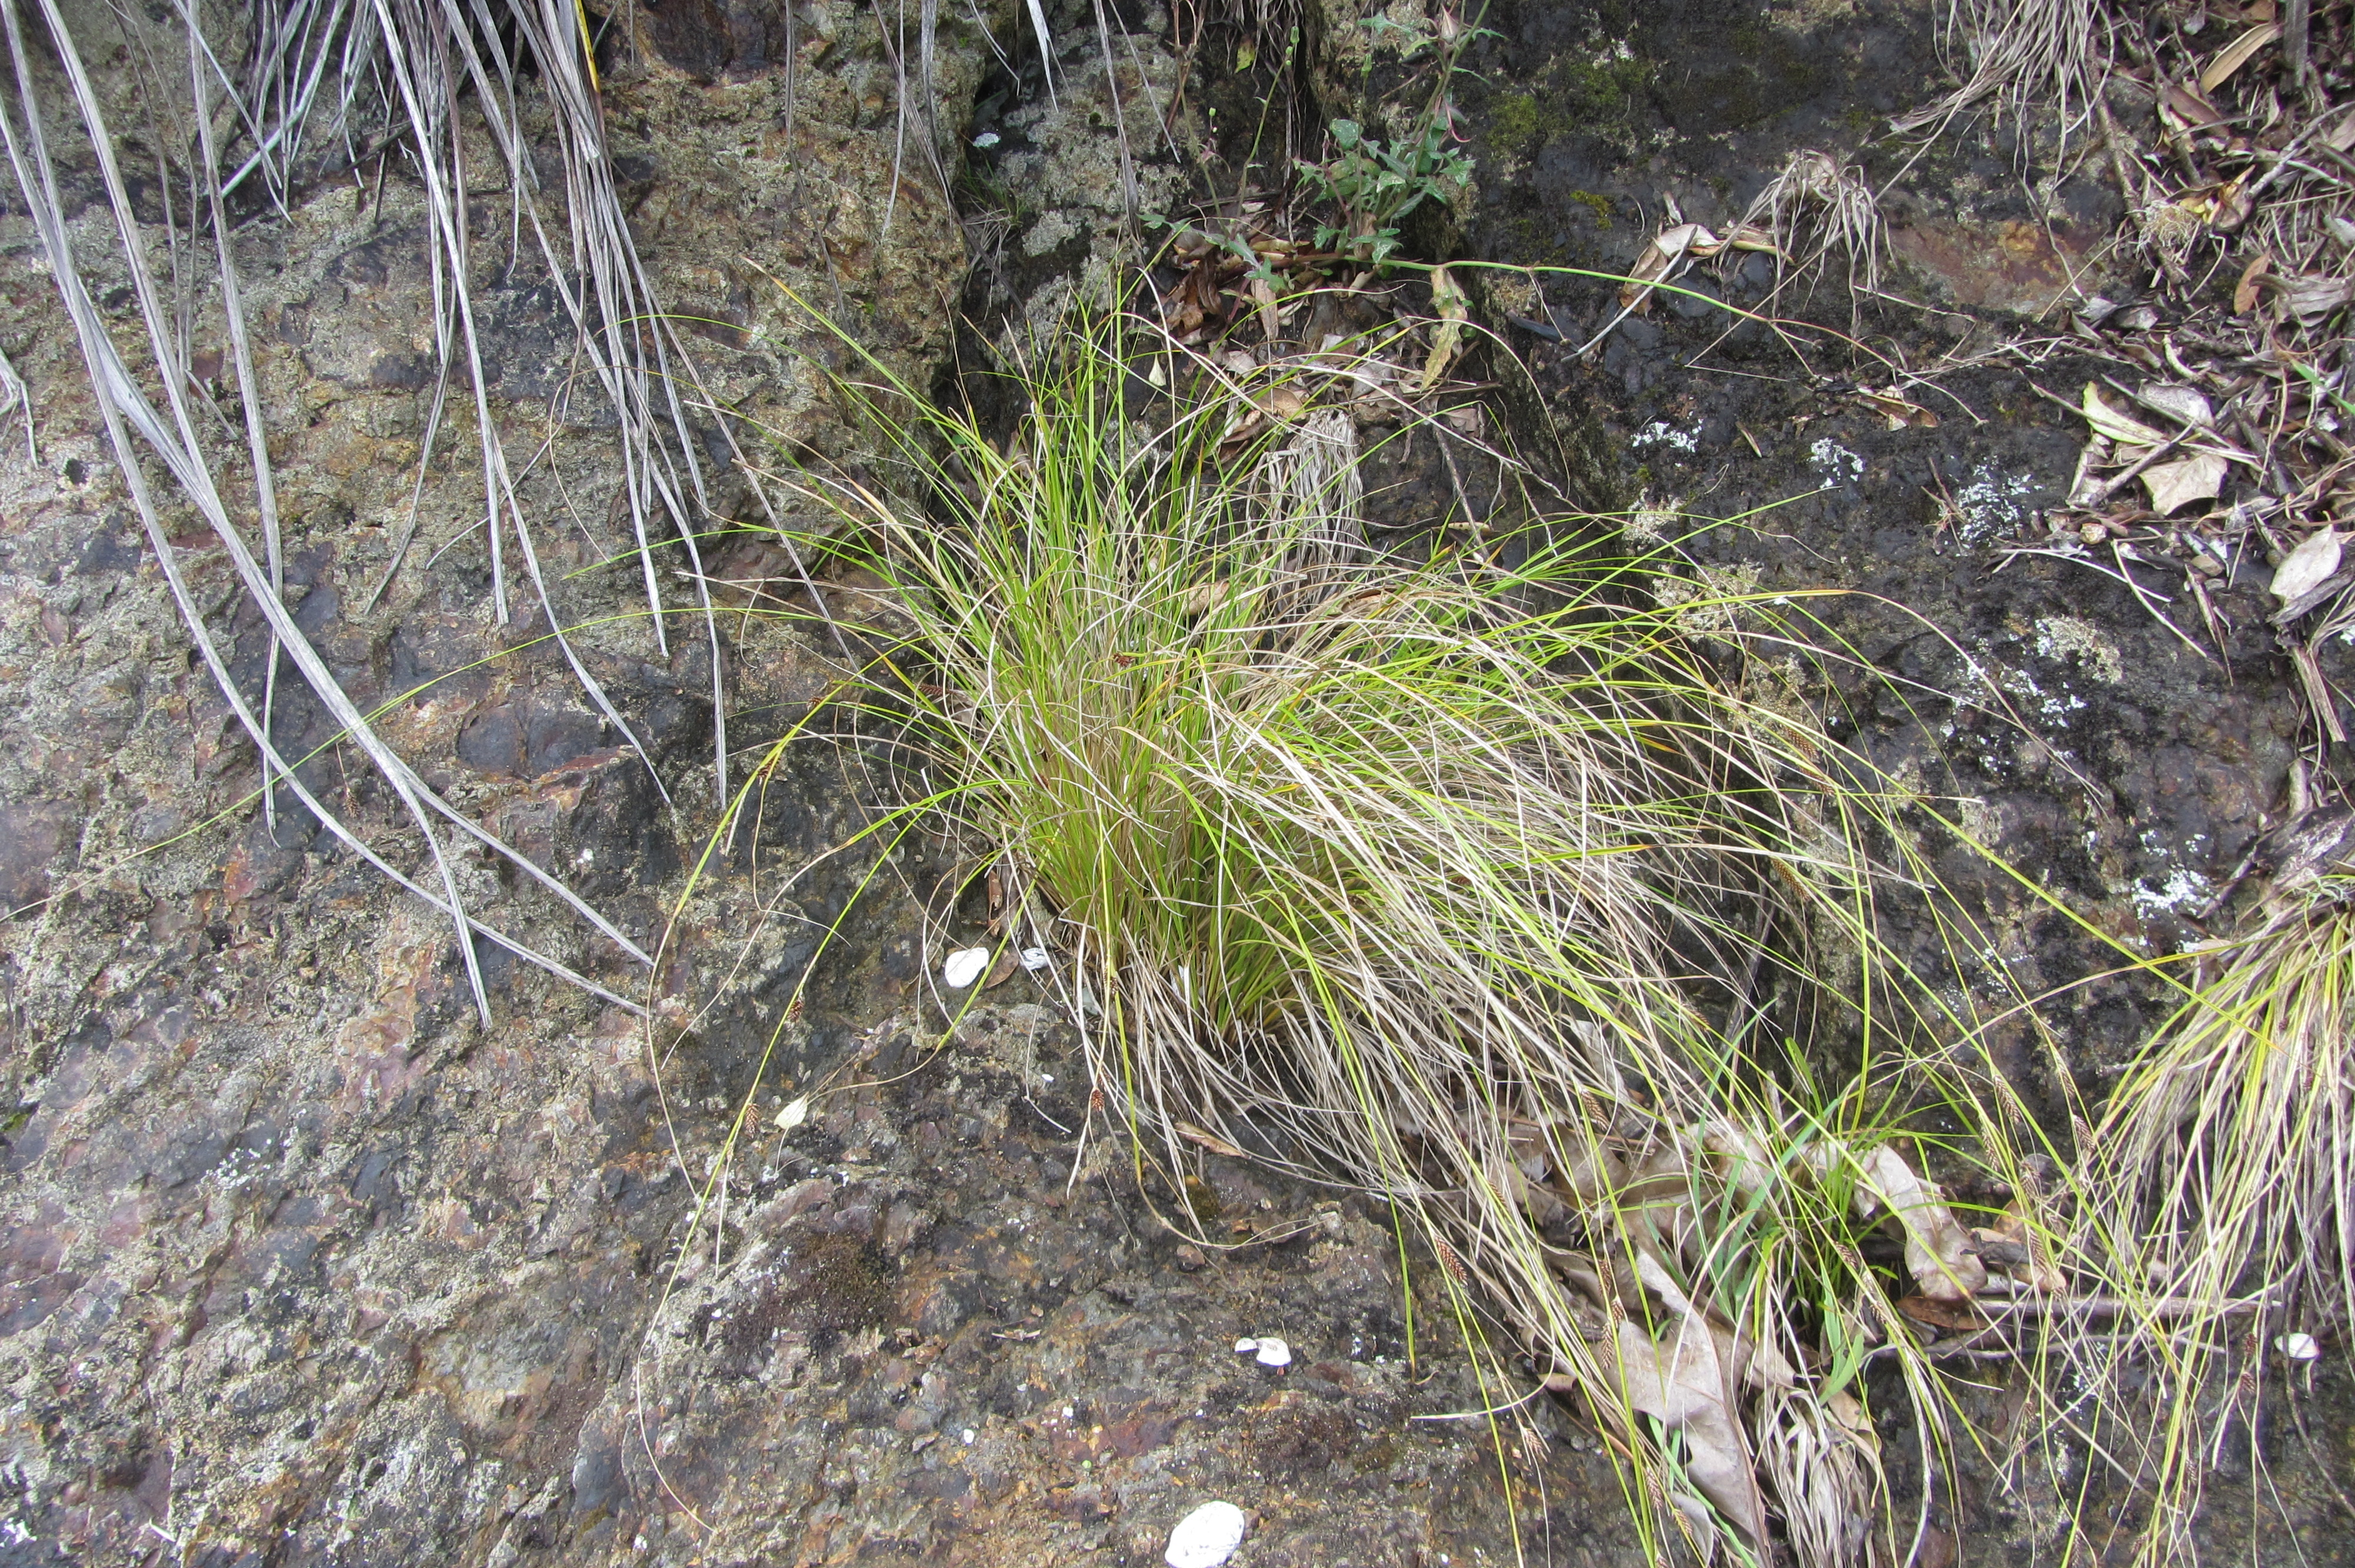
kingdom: Plantae
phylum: Tracheophyta
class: Liliopsida
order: Poales
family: Cyperaceae
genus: Carex
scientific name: Carex flagellifera
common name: Glen murray tussock
